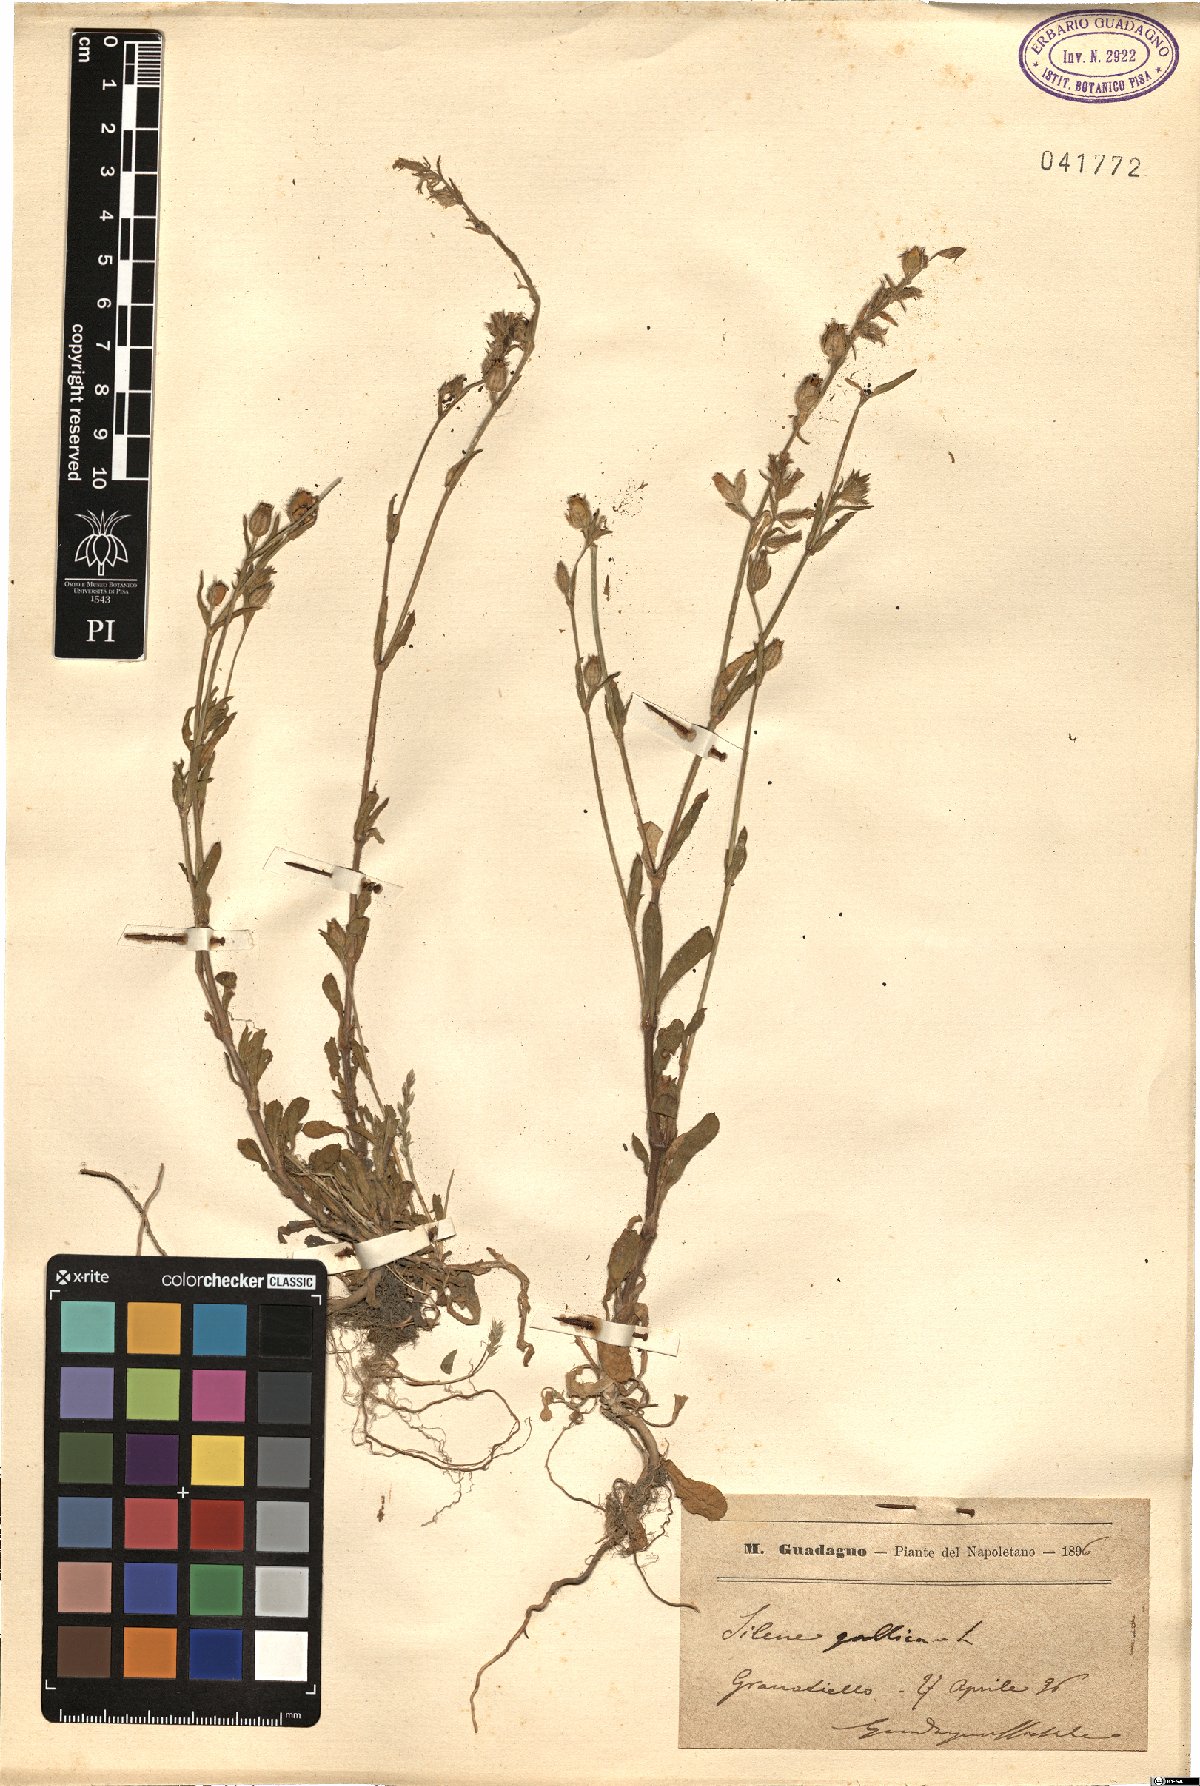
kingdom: Plantae
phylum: Tracheophyta
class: Magnoliopsida
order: Caryophyllales
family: Caryophyllaceae
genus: Silene
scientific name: Silene gallica
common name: Small-flowered catchfly
